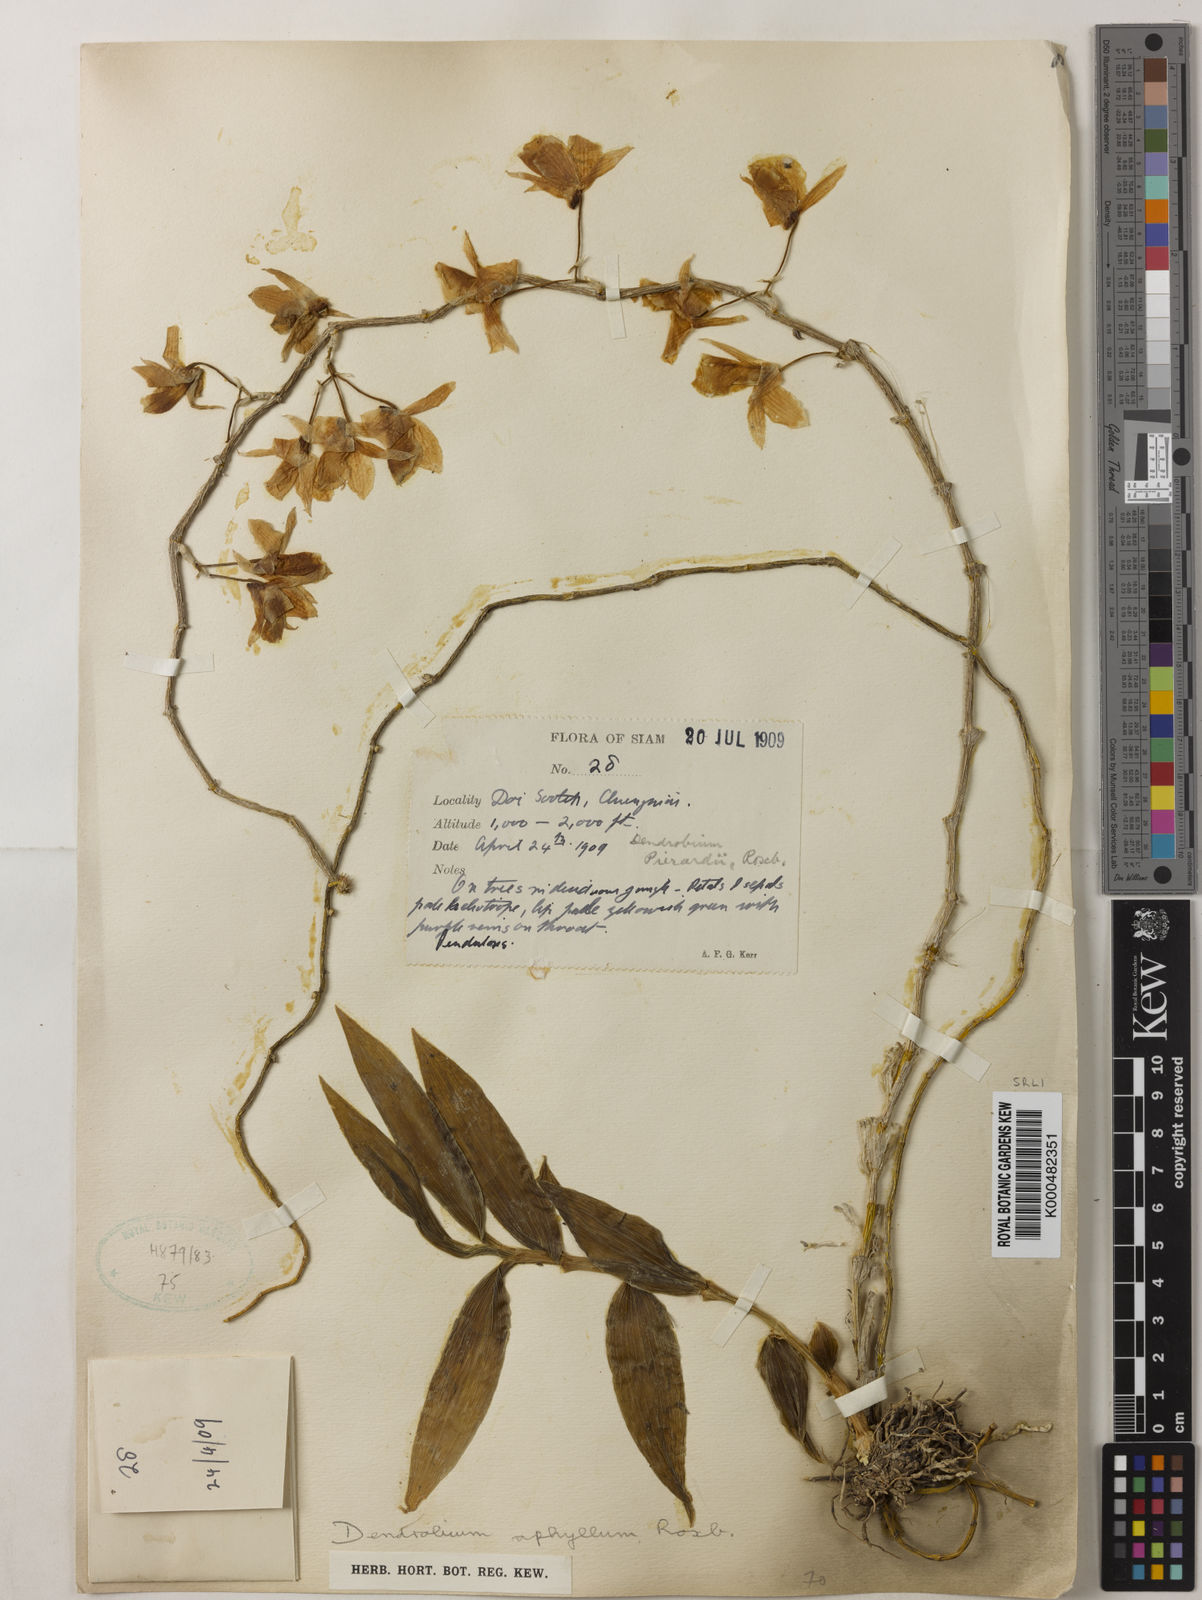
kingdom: Plantae
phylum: Tracheophyta
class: Liliopsida
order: Asparagales
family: Orchidaceae
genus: Dendrobium
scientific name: Dendrobium macrostachyum
